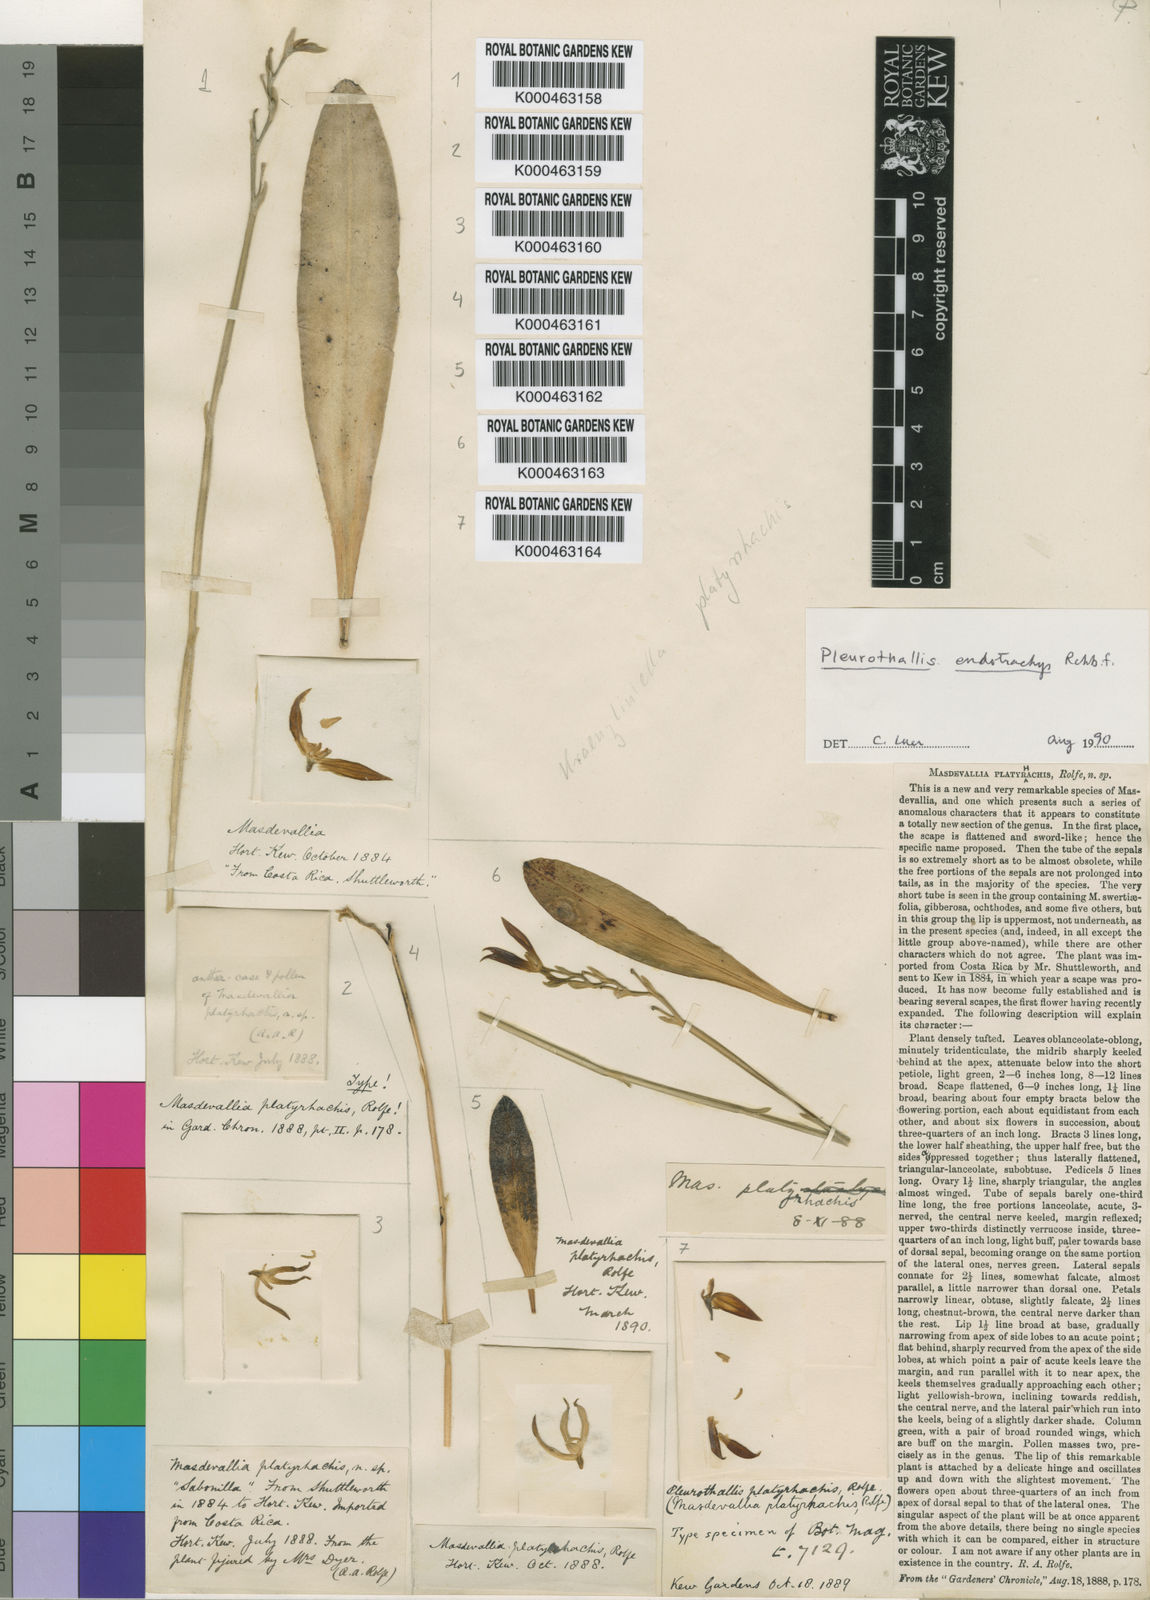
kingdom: Plantae
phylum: Tracheophyta
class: Magnoliopsida
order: Gentianales
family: Apocynaceae
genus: Micrechites
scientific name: Micrechites
